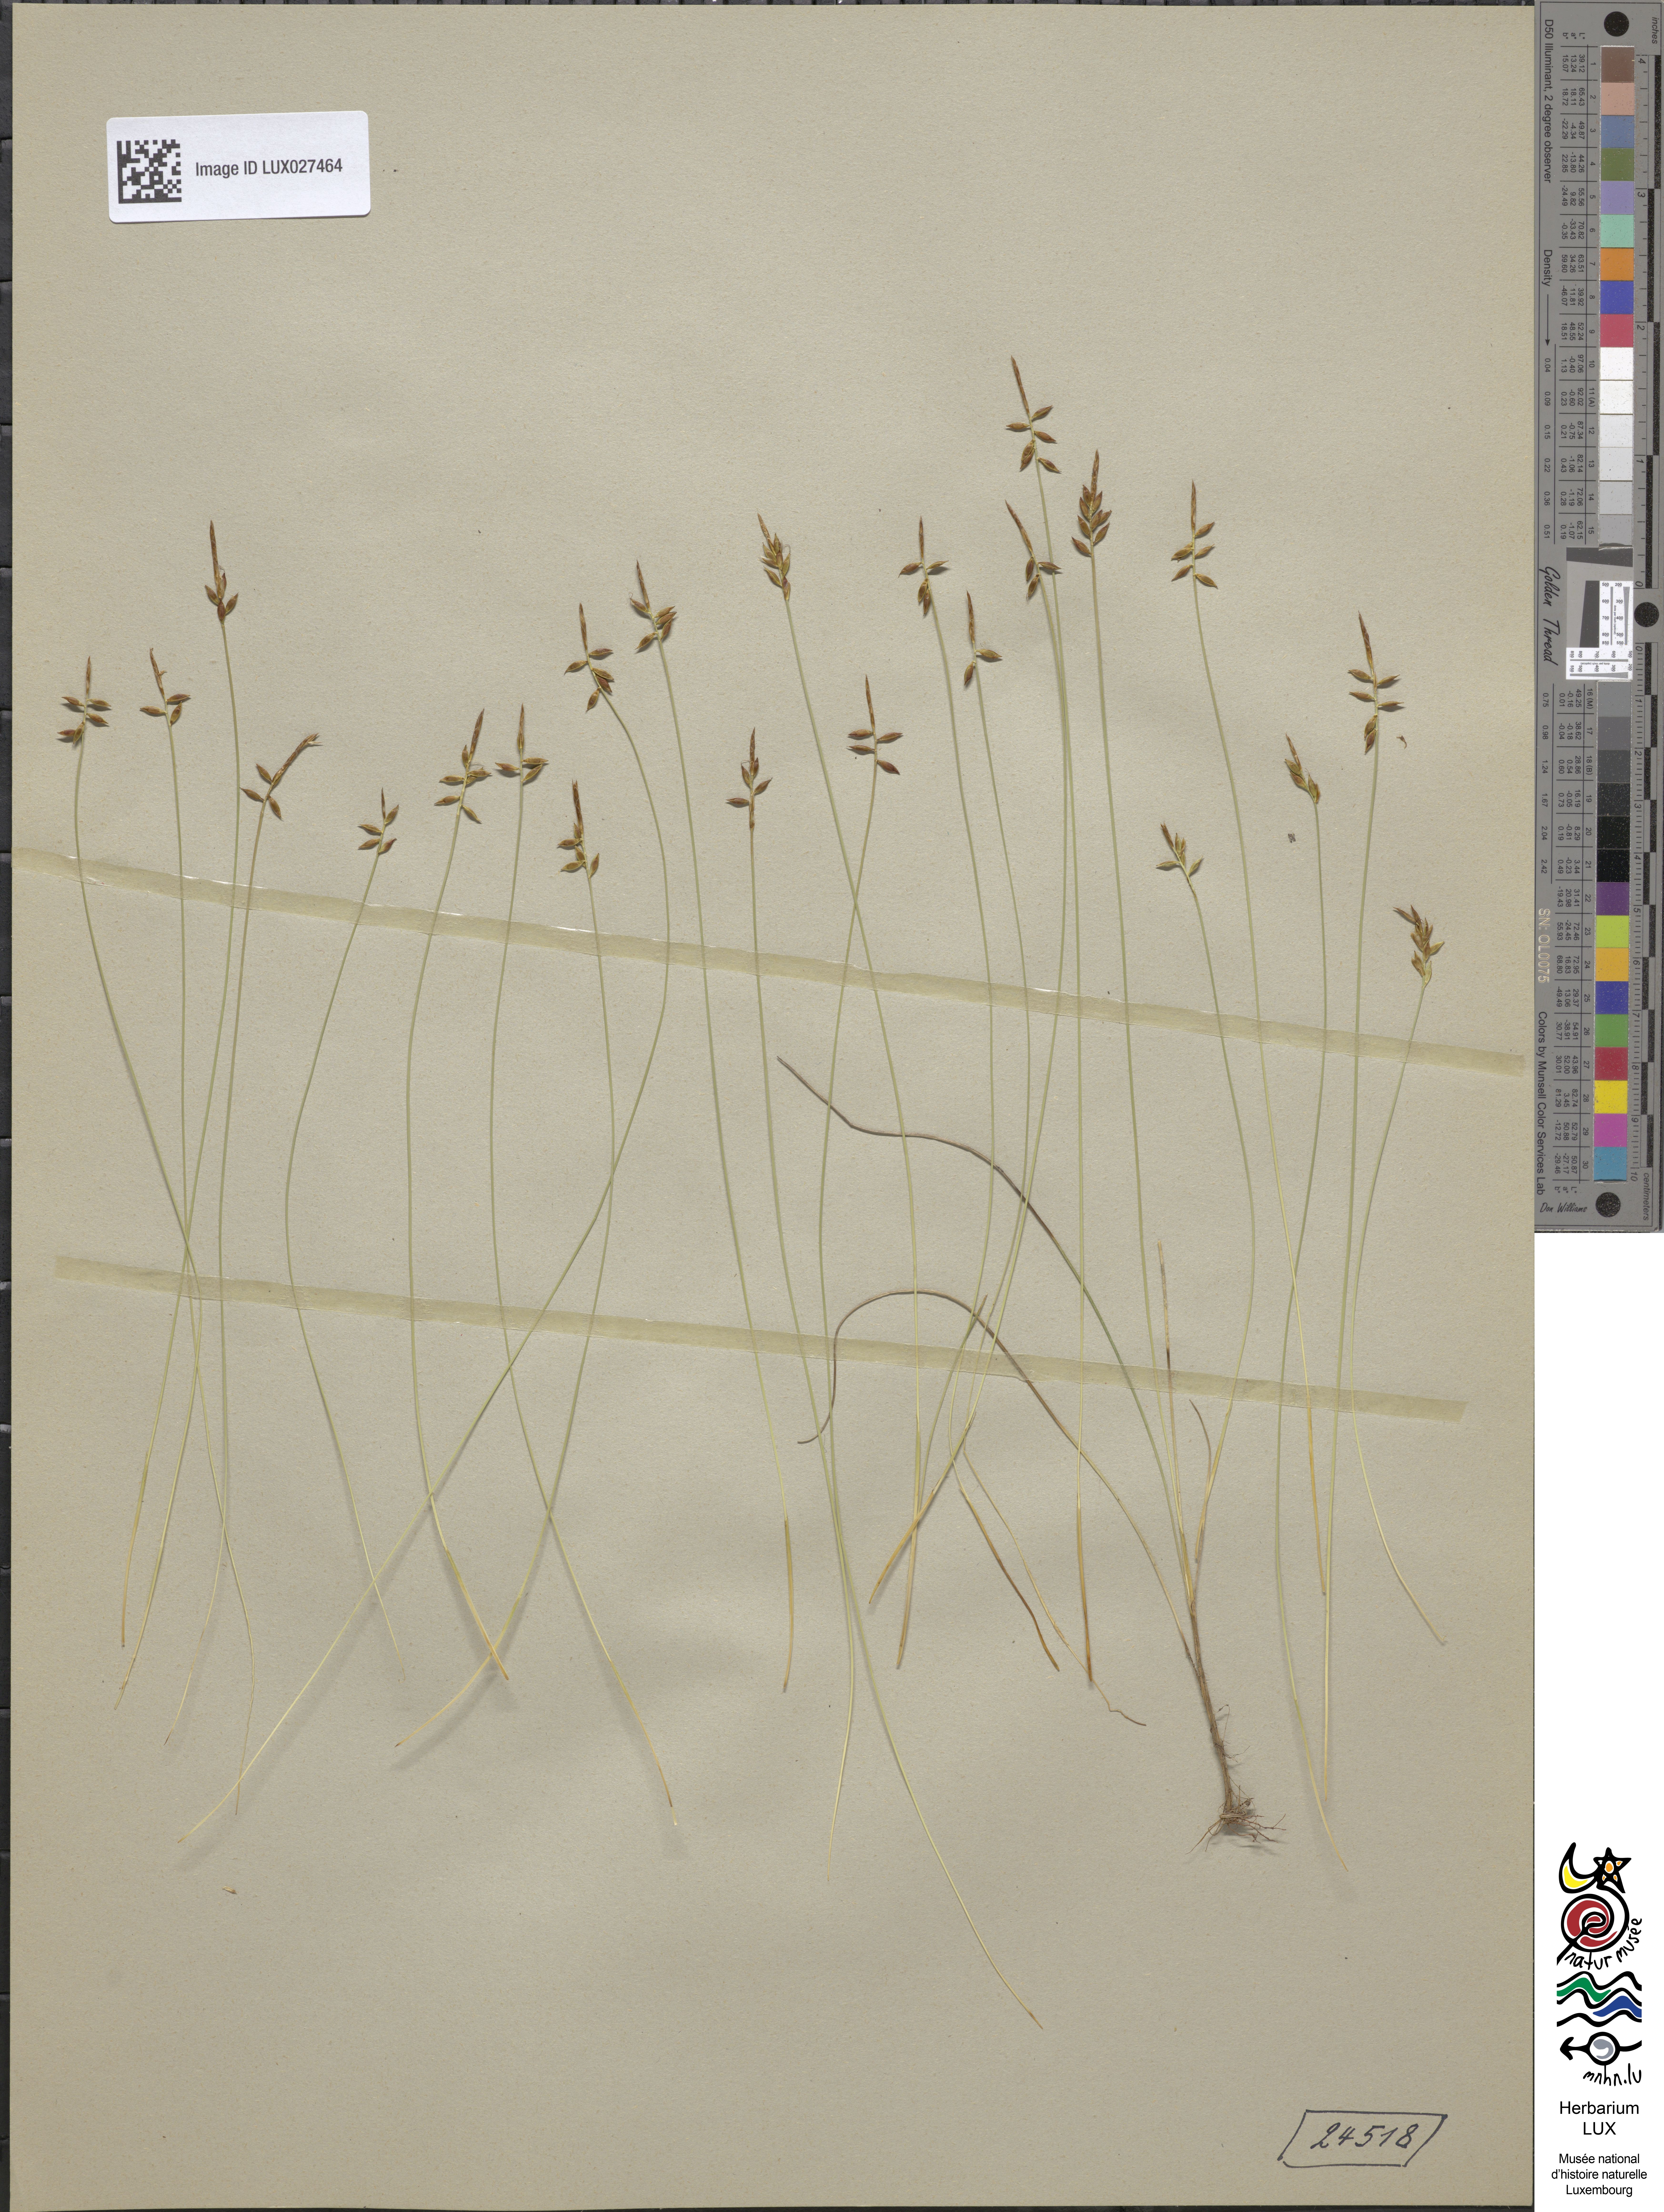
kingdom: Plantae
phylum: Tracheophyta
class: Liliopsida
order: Poales
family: Cyperaceae
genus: Carex
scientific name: Carex pulicaris
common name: Flea sedge
